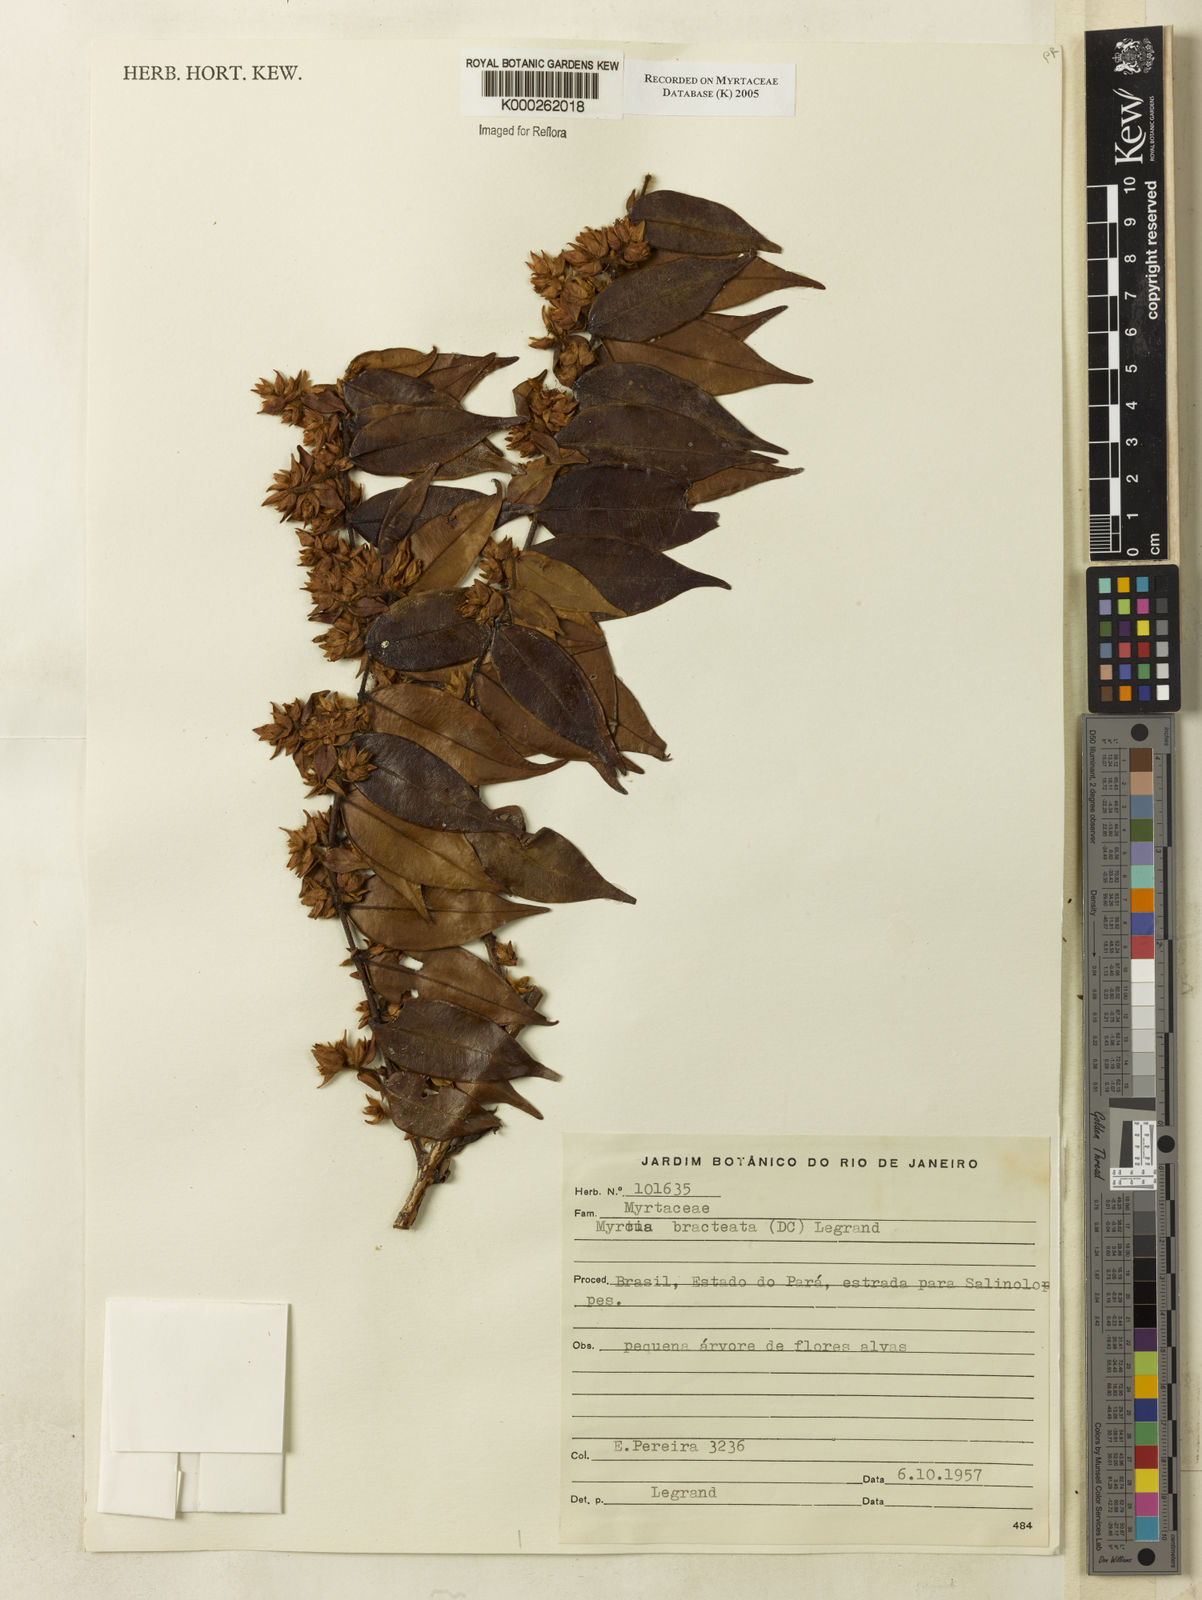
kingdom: Plantae
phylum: Tracheophyta
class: Magnoliopsida
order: Myrtales
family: Myrtaceae
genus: Myrcia
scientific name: Myrcia bracteata
